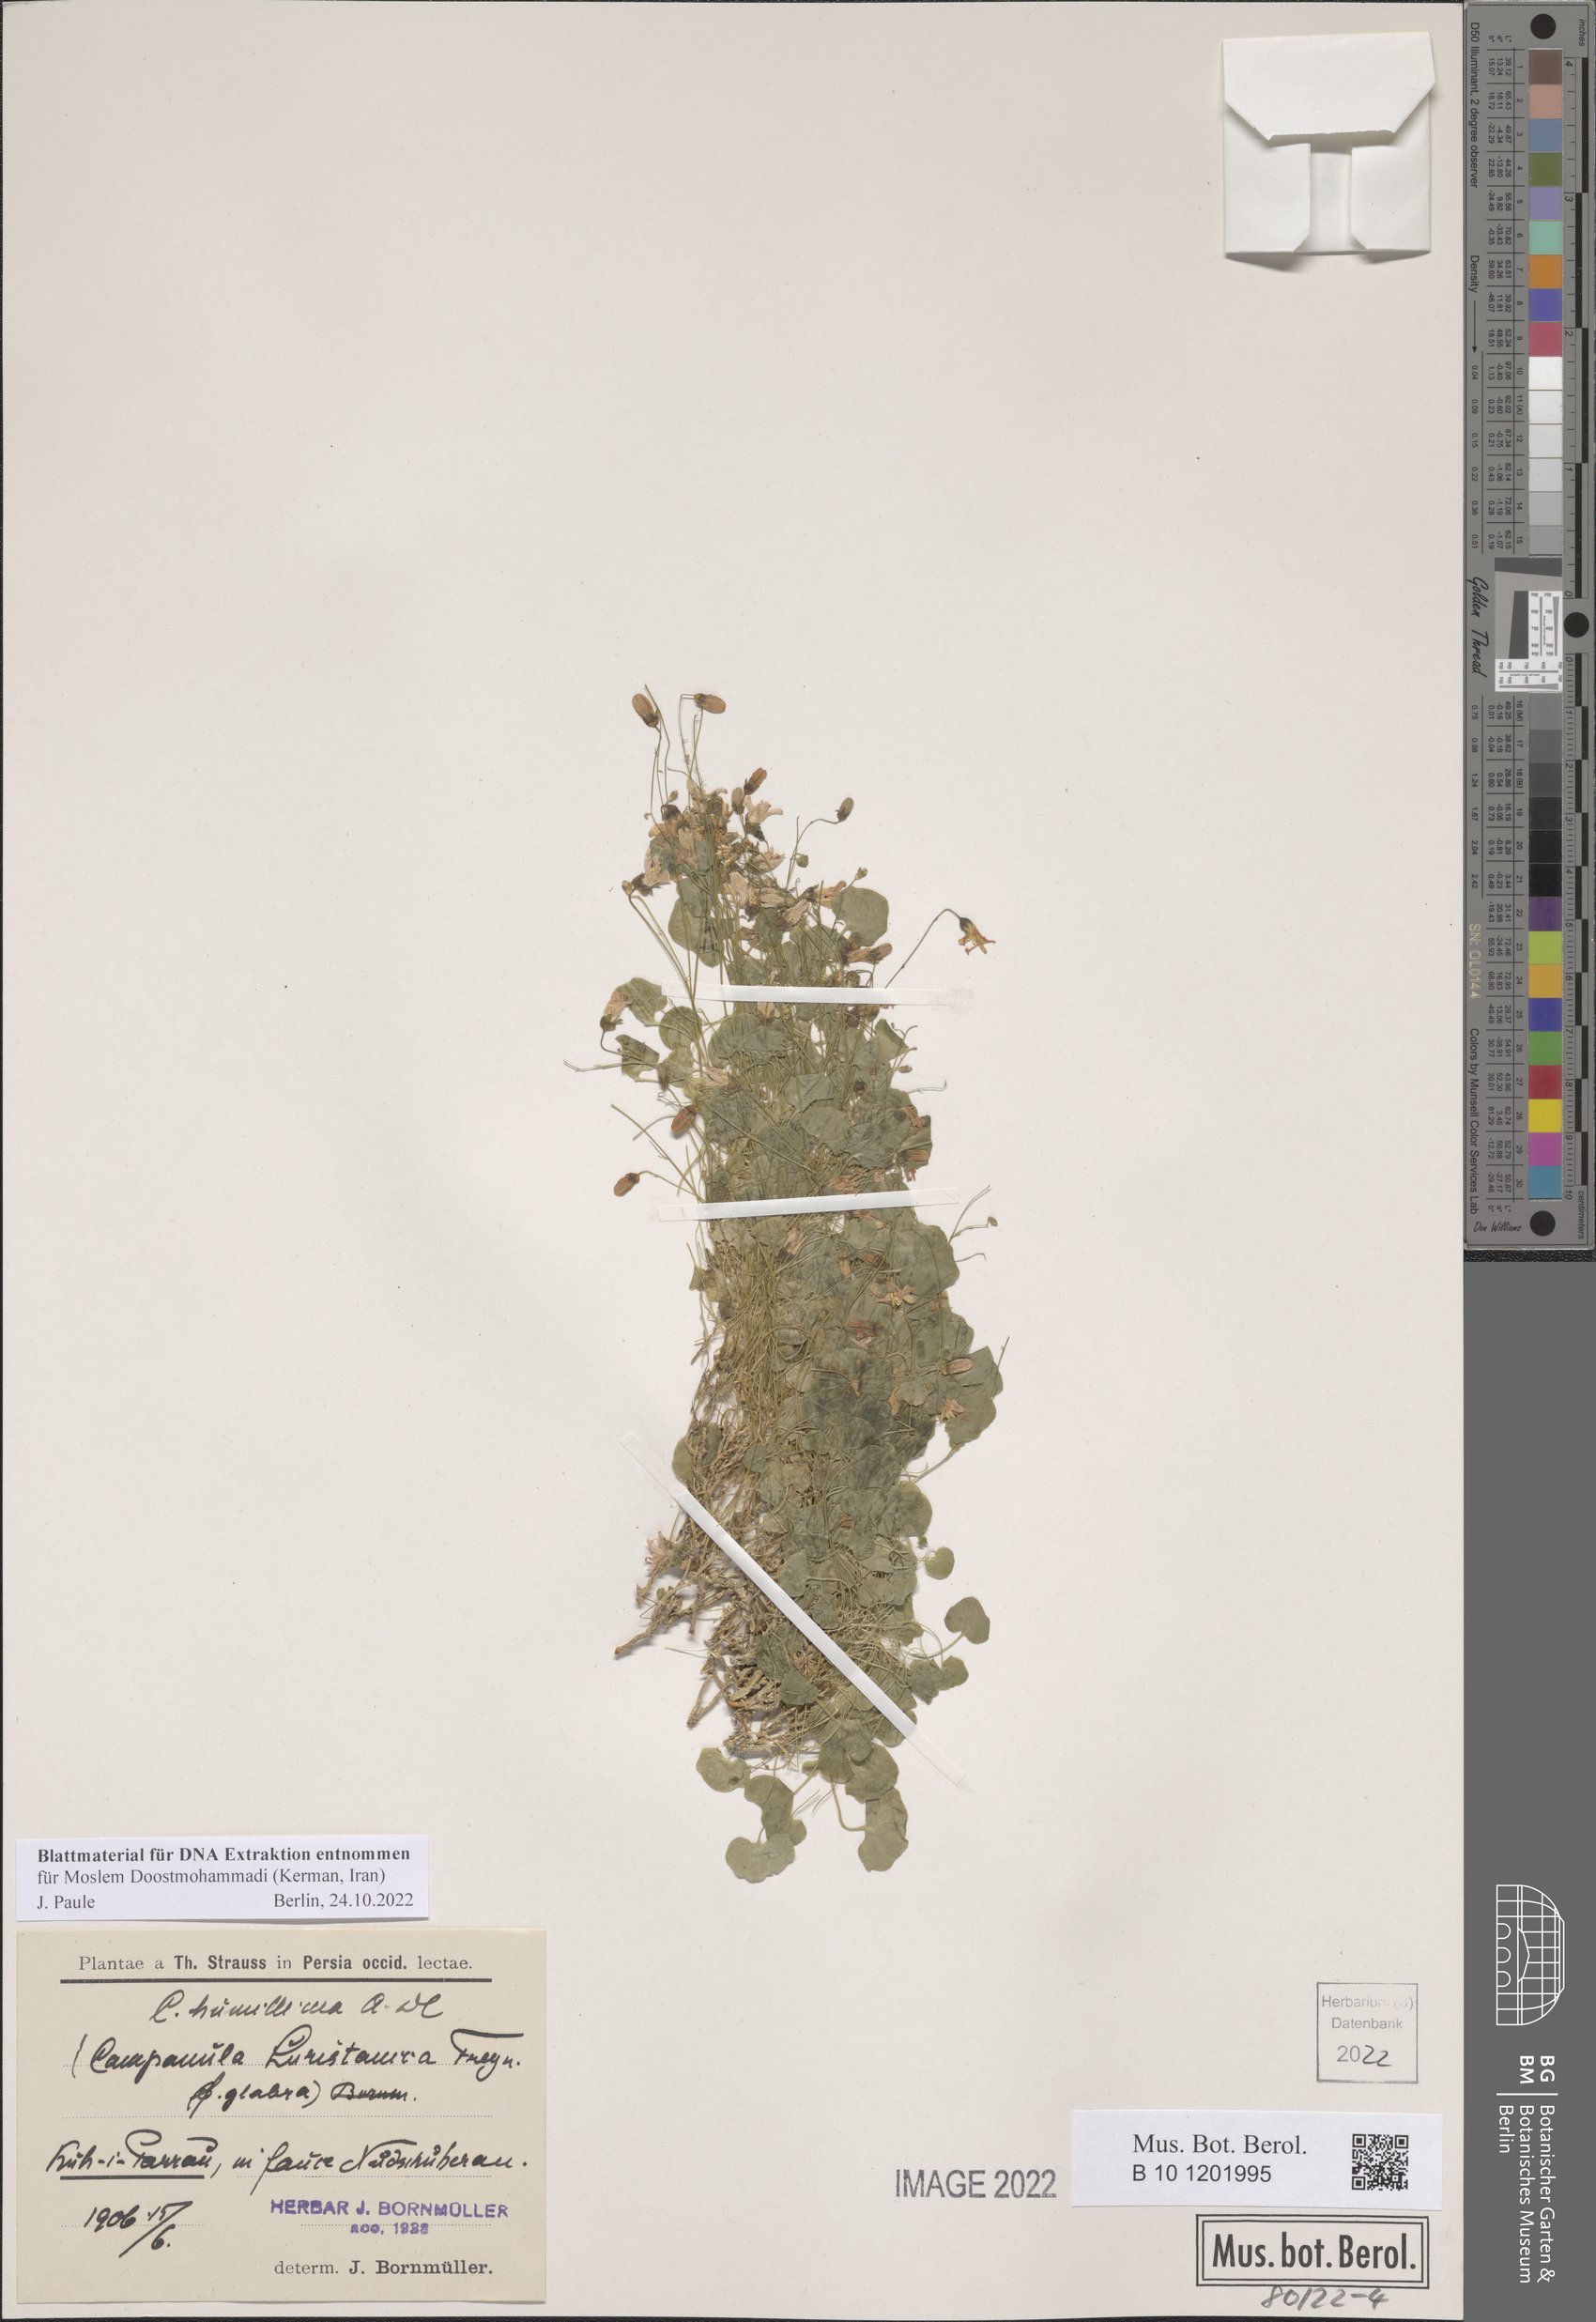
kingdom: Plantae
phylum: Tracheophyta
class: Magnoliopsida
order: Asterales
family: Campanulaceae
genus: Campanula
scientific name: Campanula luristanica
